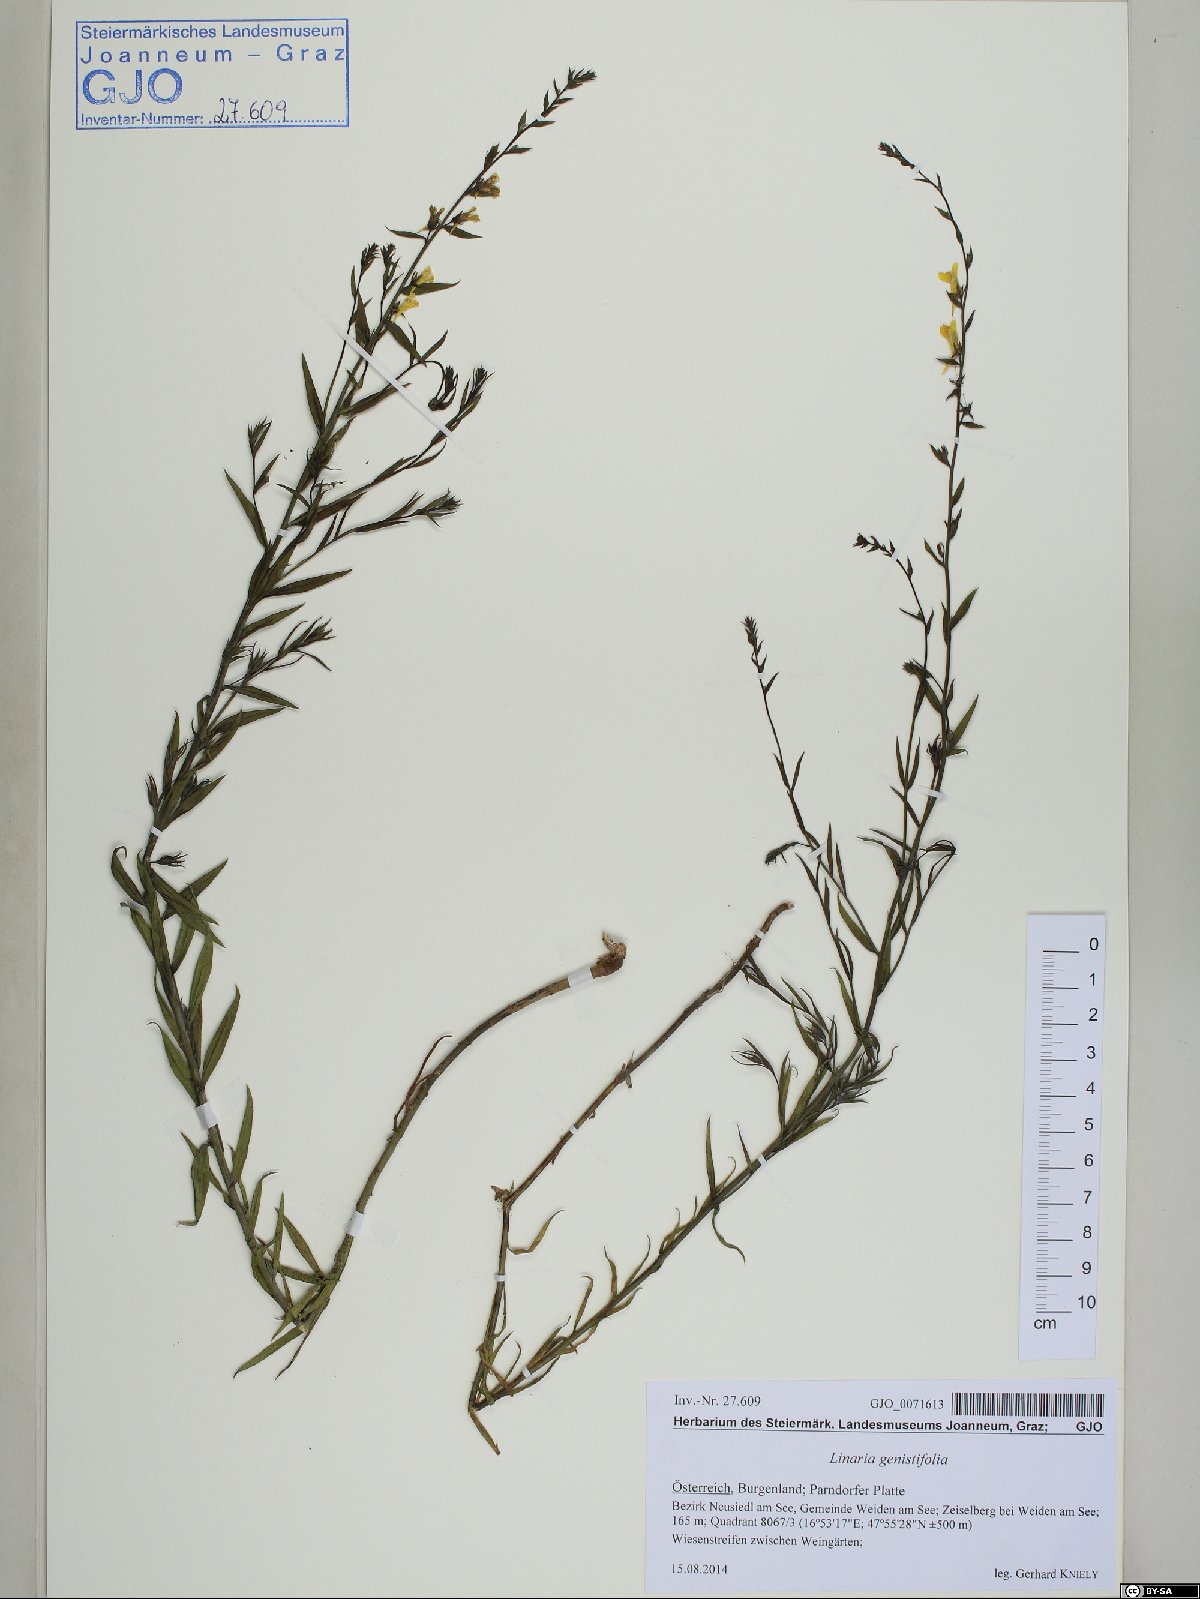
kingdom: Plantae
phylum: Tracheophyta
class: Magnoliopsida
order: Lamiales
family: Plantaginaceae
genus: Linaria
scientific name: Linaria genistifolia
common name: Broomleaf toadflax
